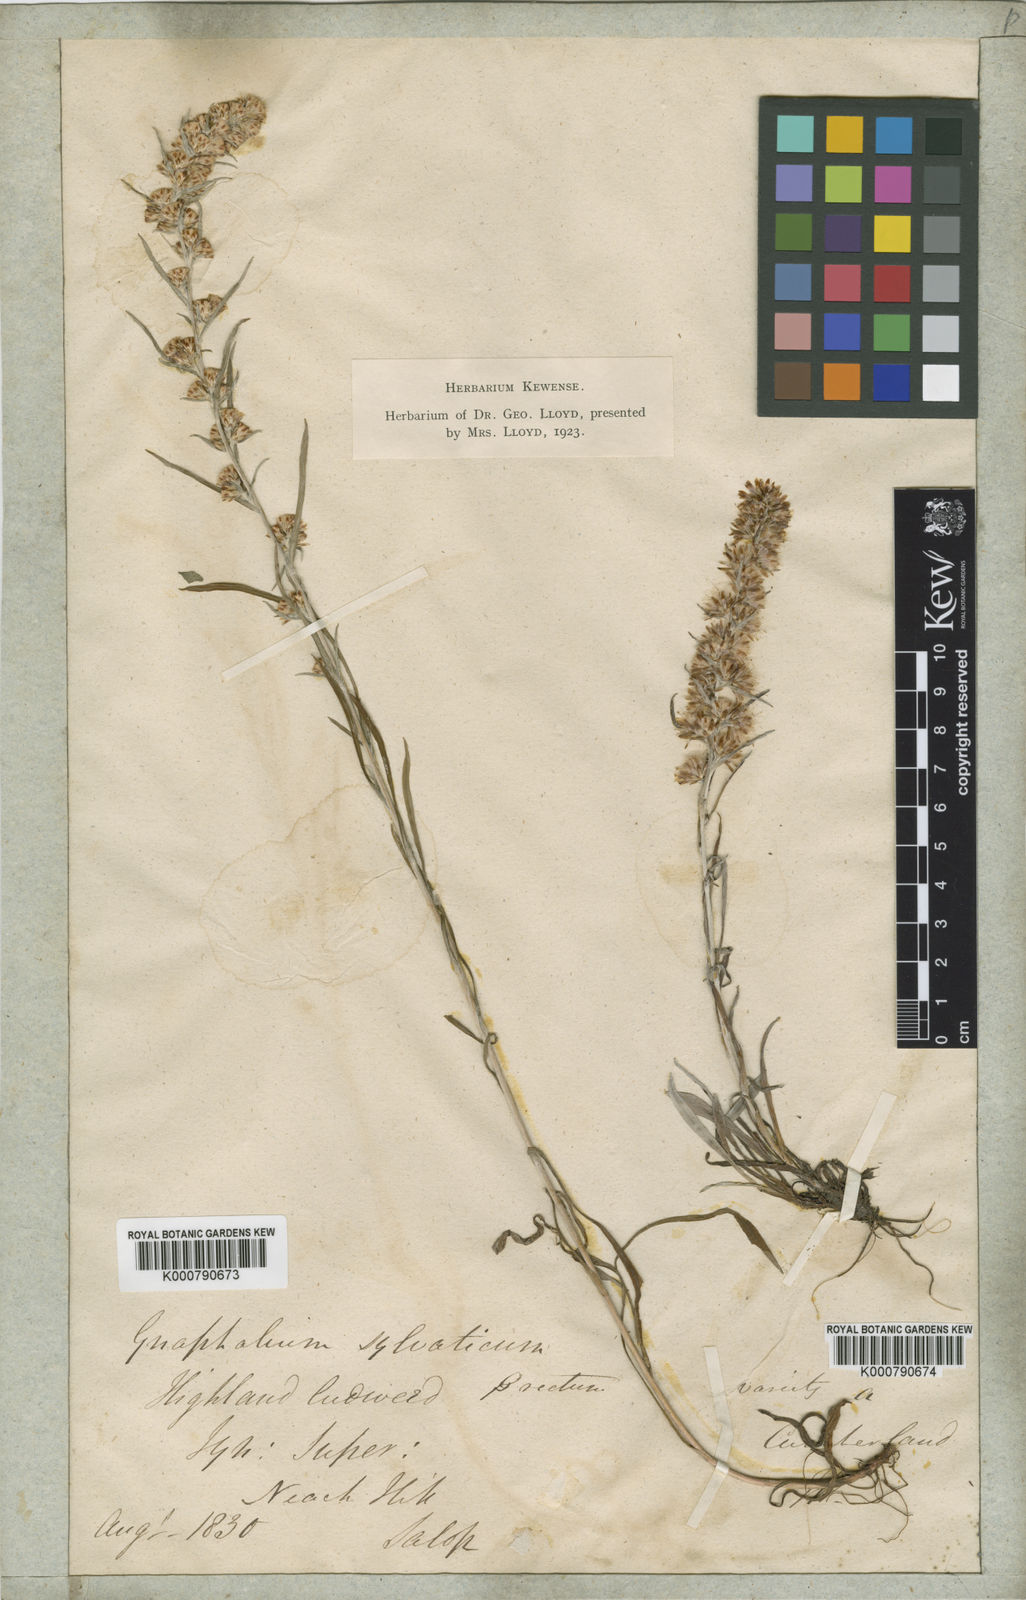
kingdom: Plantae
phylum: Tracheophyta
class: Magnoliopsida
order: Asterales
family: Asteraceae
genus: Omalotheca
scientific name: Omalotheca sylvatica
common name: Heath cudweed
